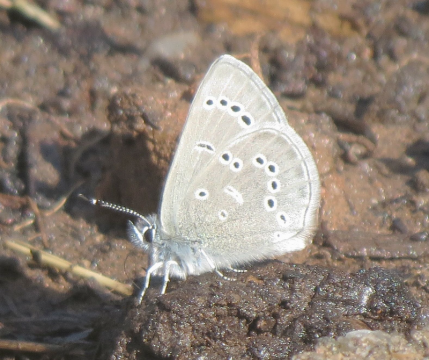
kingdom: Animalia
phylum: Arthropoda
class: Insecta
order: Lepidoptera
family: Lycaenidae
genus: Glaucopsyche
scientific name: Glaucopsyche lygdamus
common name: Silvery Blue
